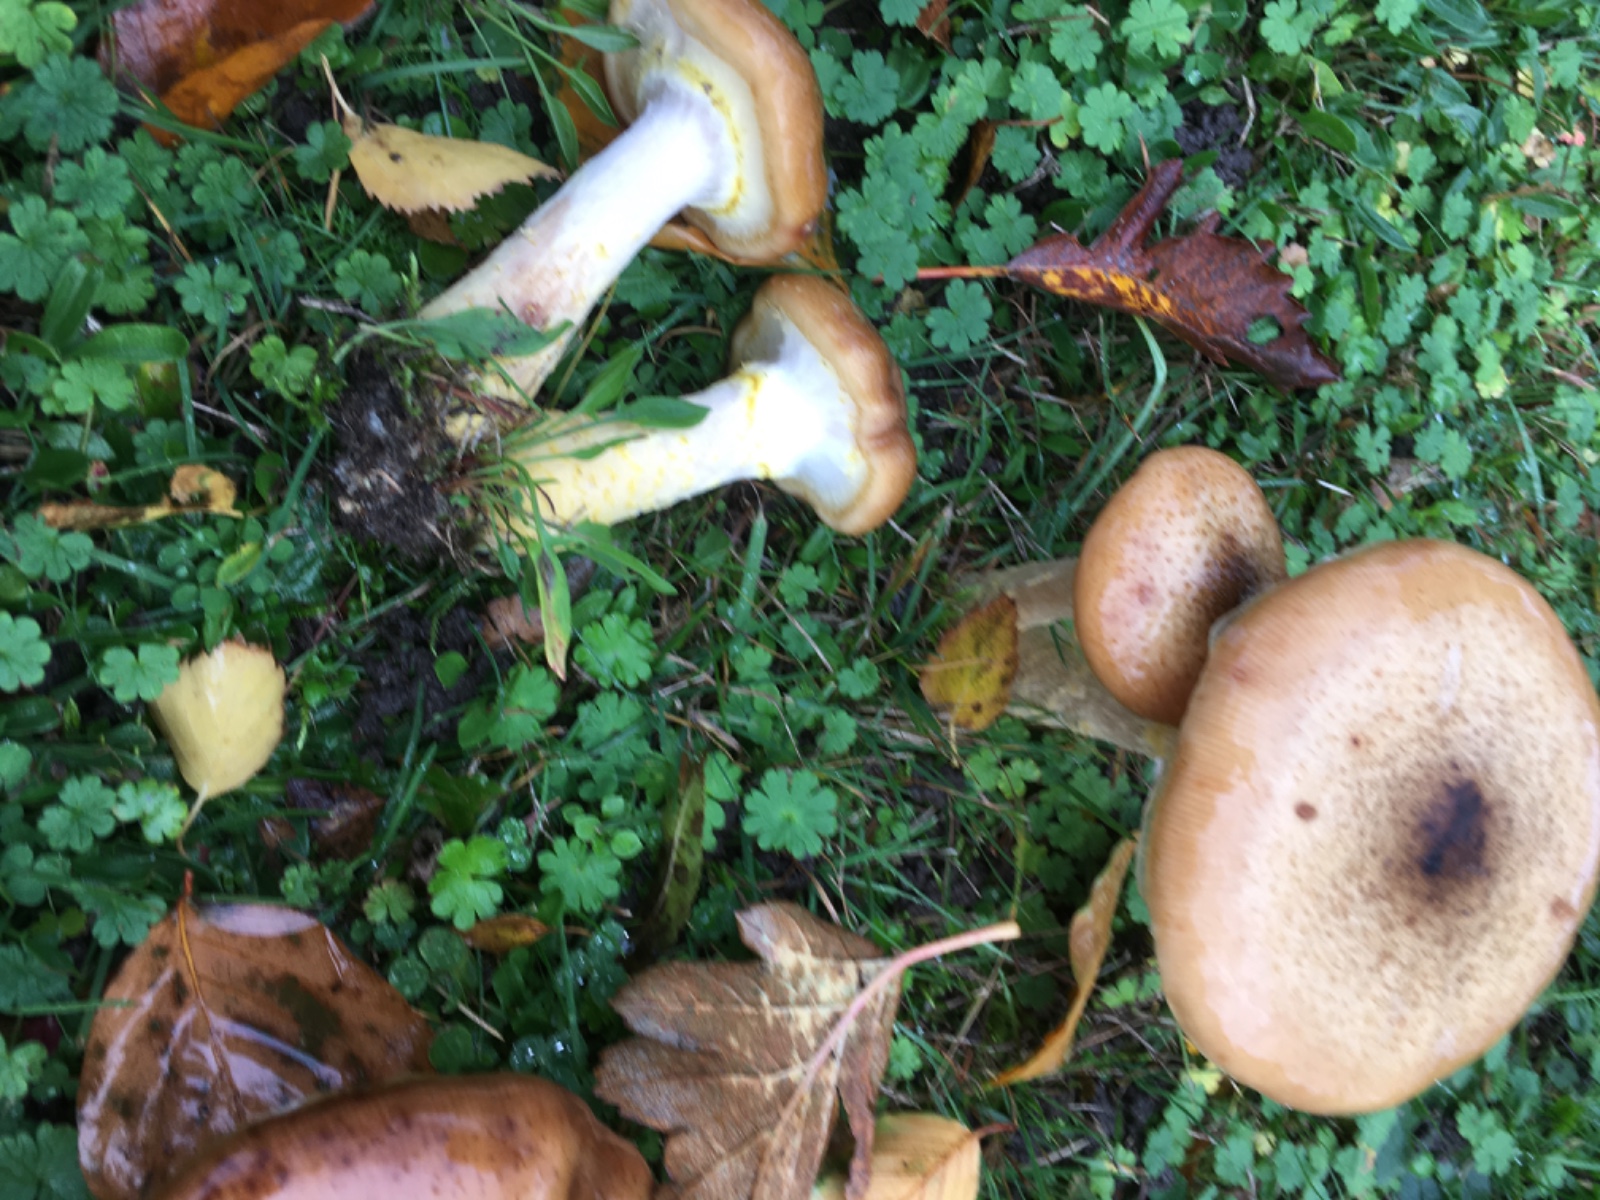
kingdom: Fungi
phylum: Basidiomycota
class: Agaricomycetes
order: Agaricales
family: Physalacriaceae
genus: Armillaria
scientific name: Armillaria lutea
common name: køllestokket honningsvamp
